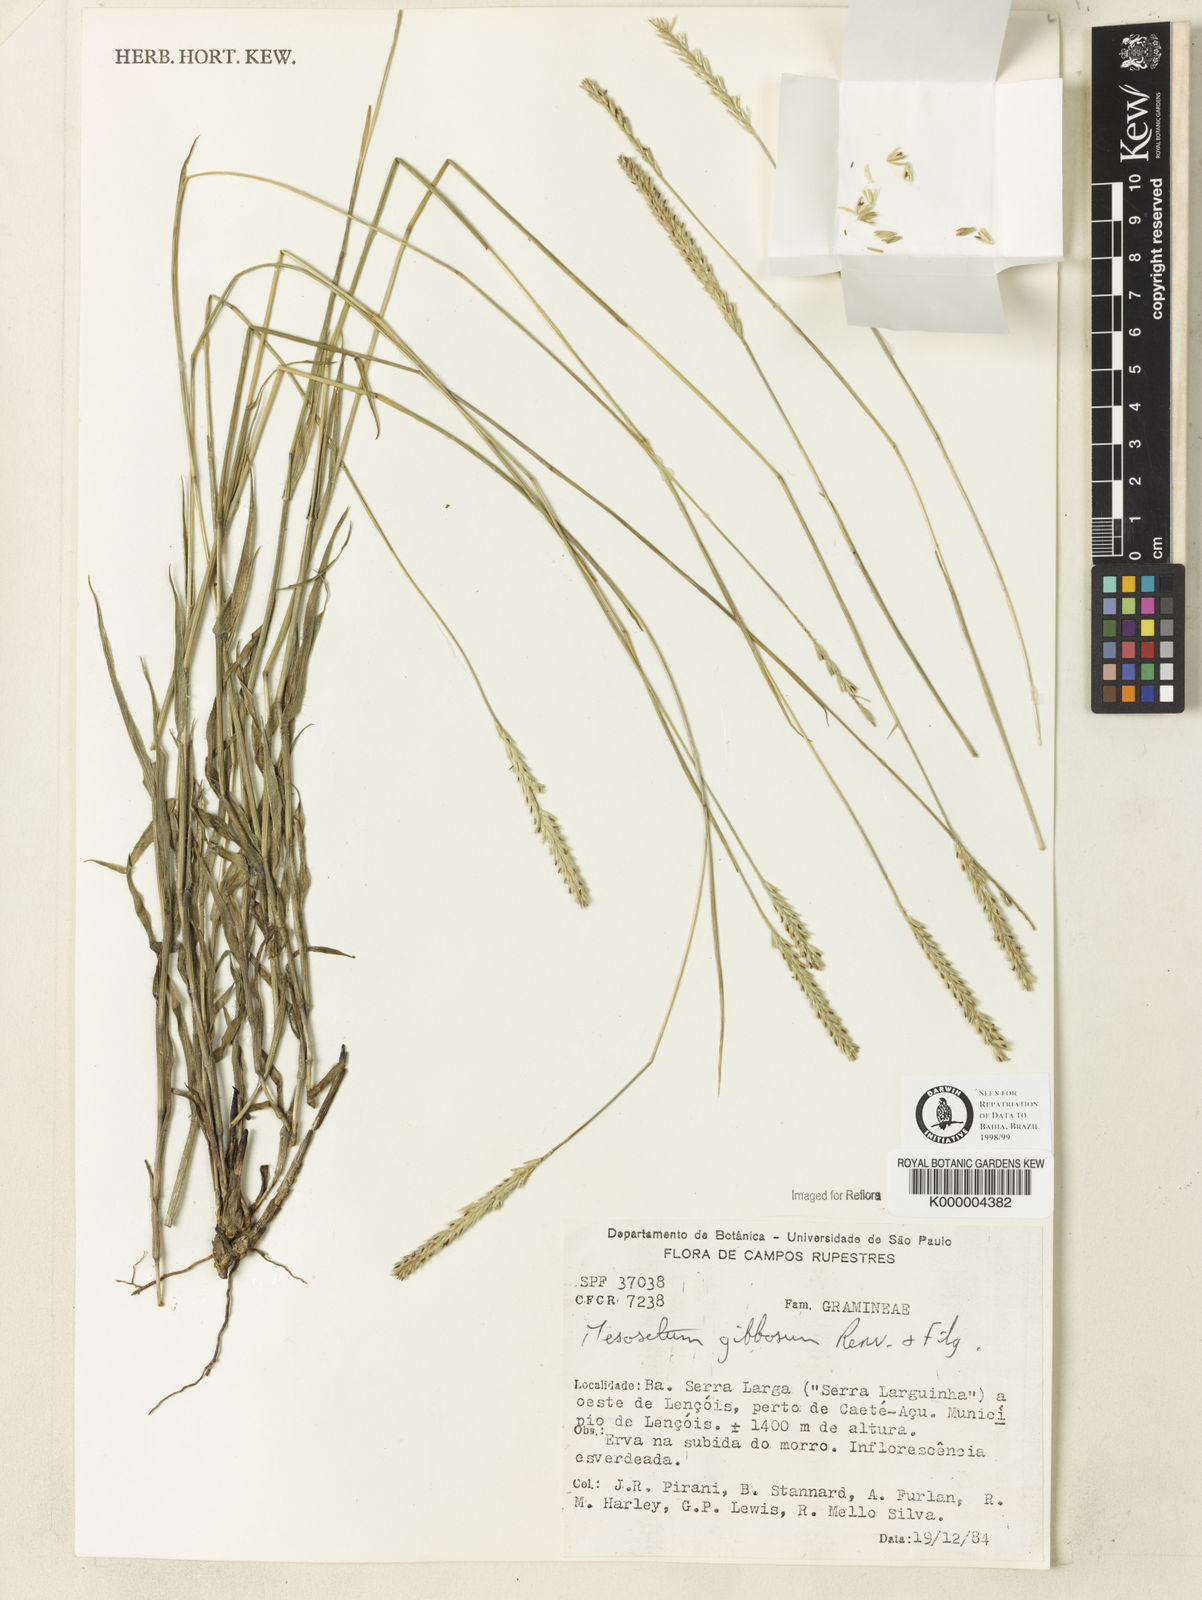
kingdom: Plantae
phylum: Tracheophyta
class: Liliopsida
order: Poales
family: Poaceae
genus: Mesosetum
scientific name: Mesosetum gibbosum
